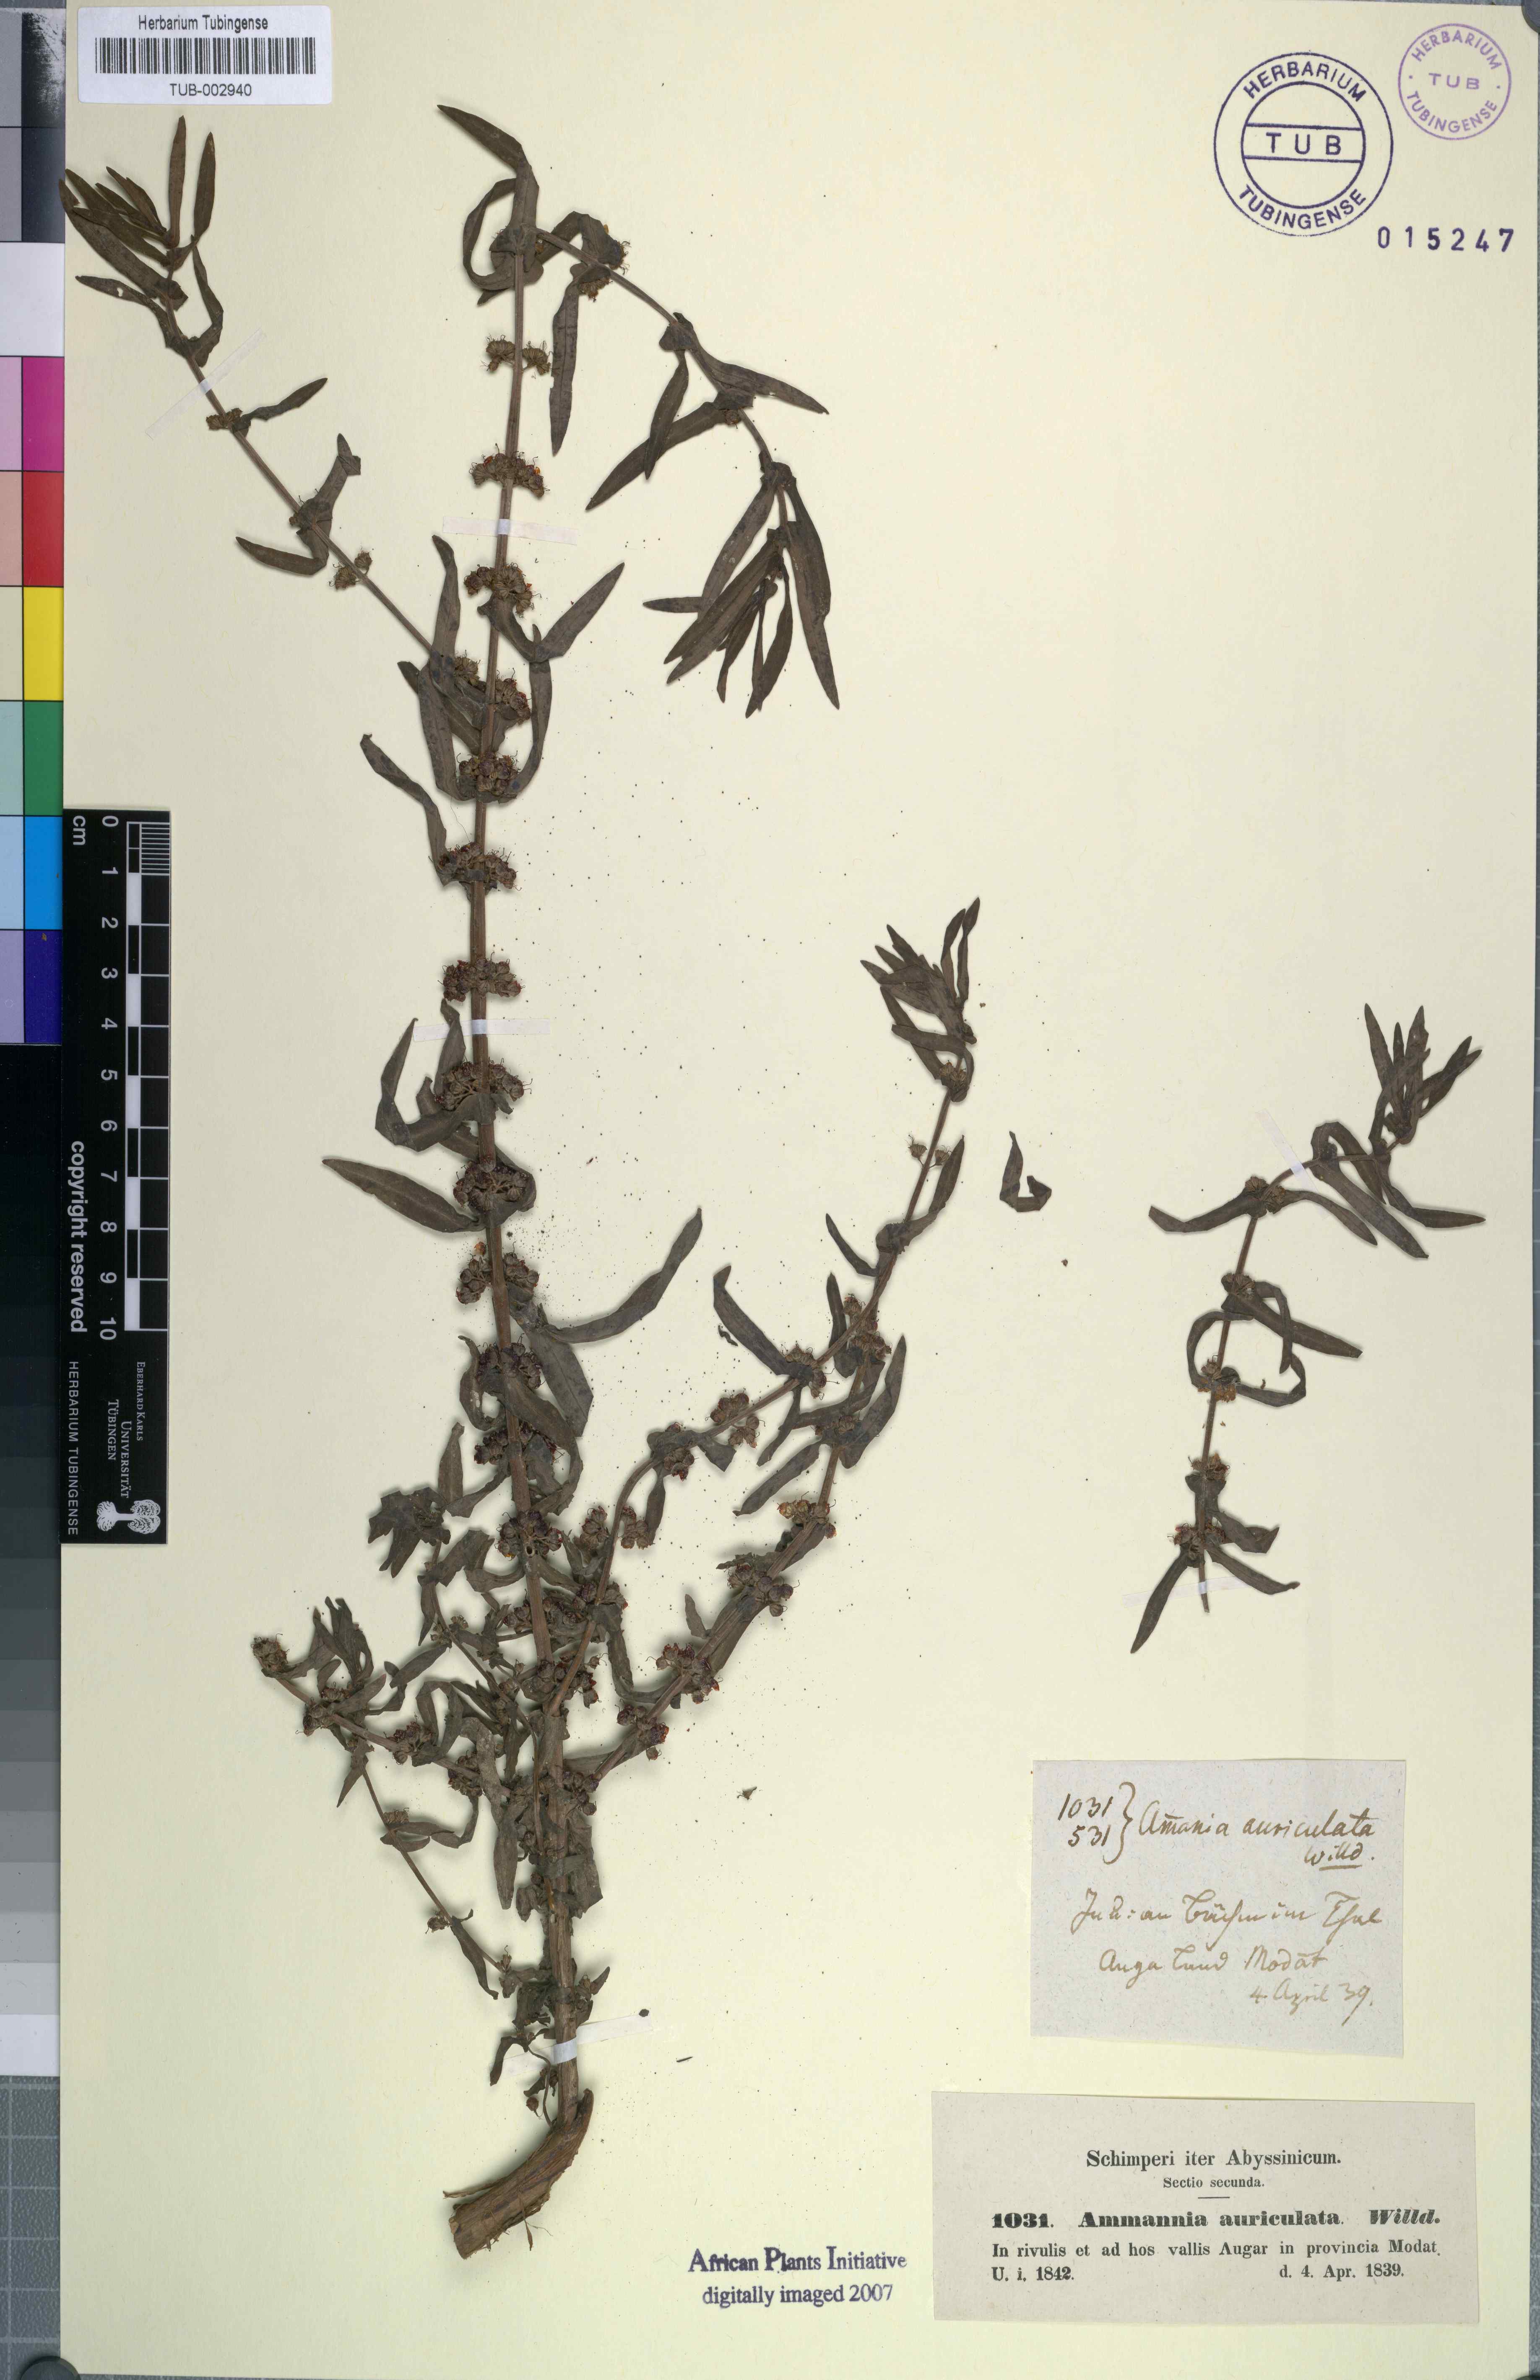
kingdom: Plantae
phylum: Tracheophyta
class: Magnoliopsida
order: Myrtales
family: Lythraceae
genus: Ammannia
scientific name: Ammannia auriculata
